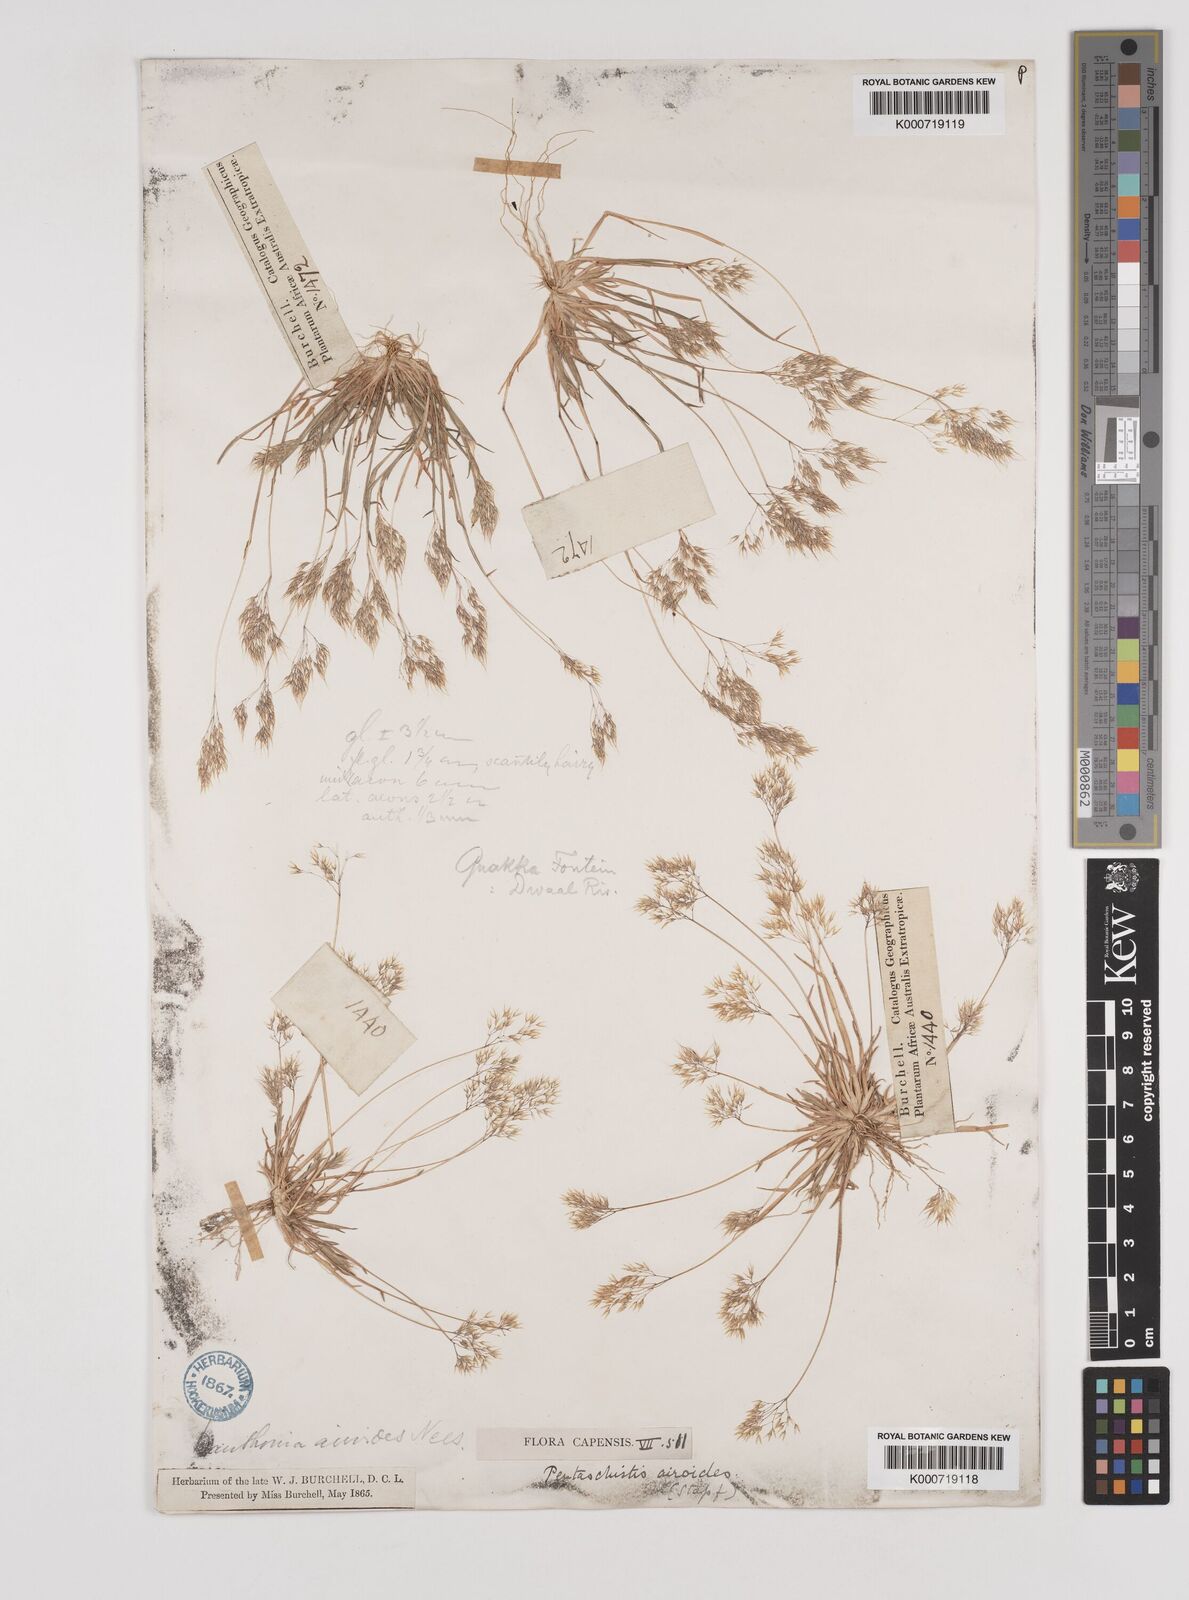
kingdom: Plantae
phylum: Tracheophyta
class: Liliopsida
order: Poales
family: Poaceae
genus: Pentameris
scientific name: Pentameris airoides
